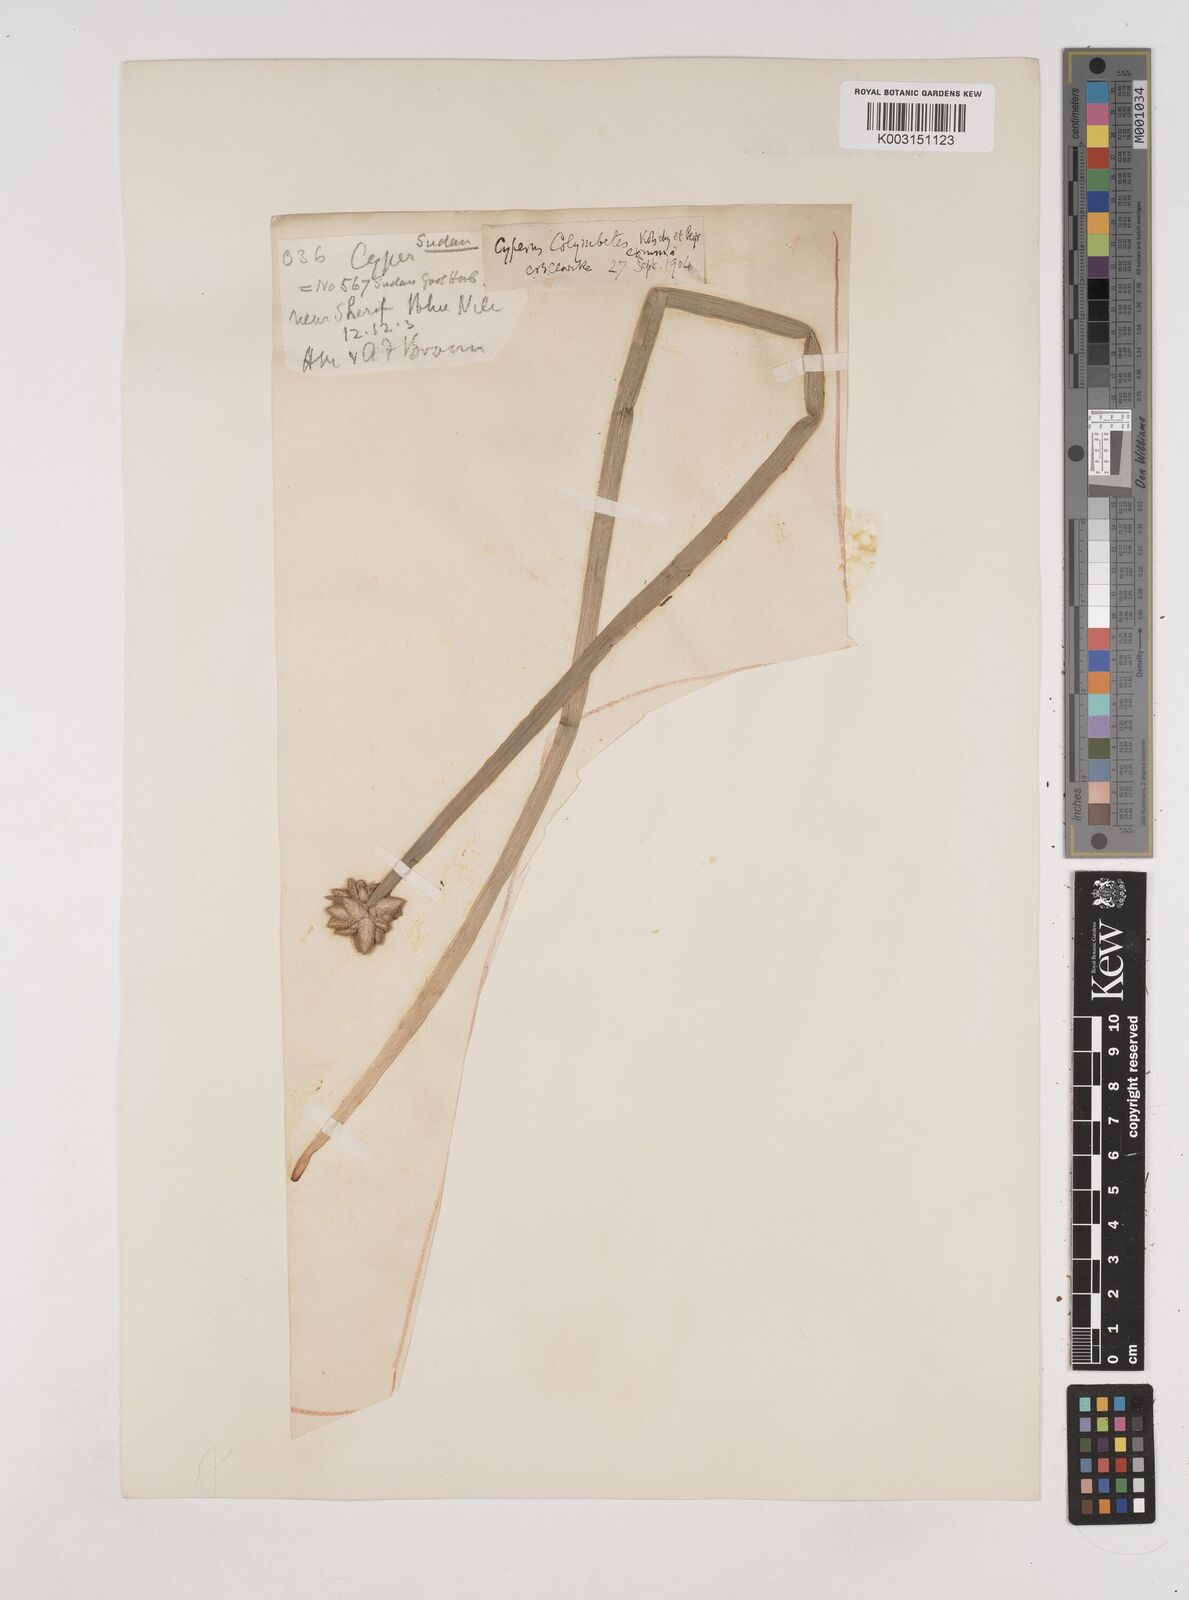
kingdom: Plantae
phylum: Tracheophyta
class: Liliopsida
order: Poales
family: Cyperaceae
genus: Cyperus
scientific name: Cyperus colymbetes
